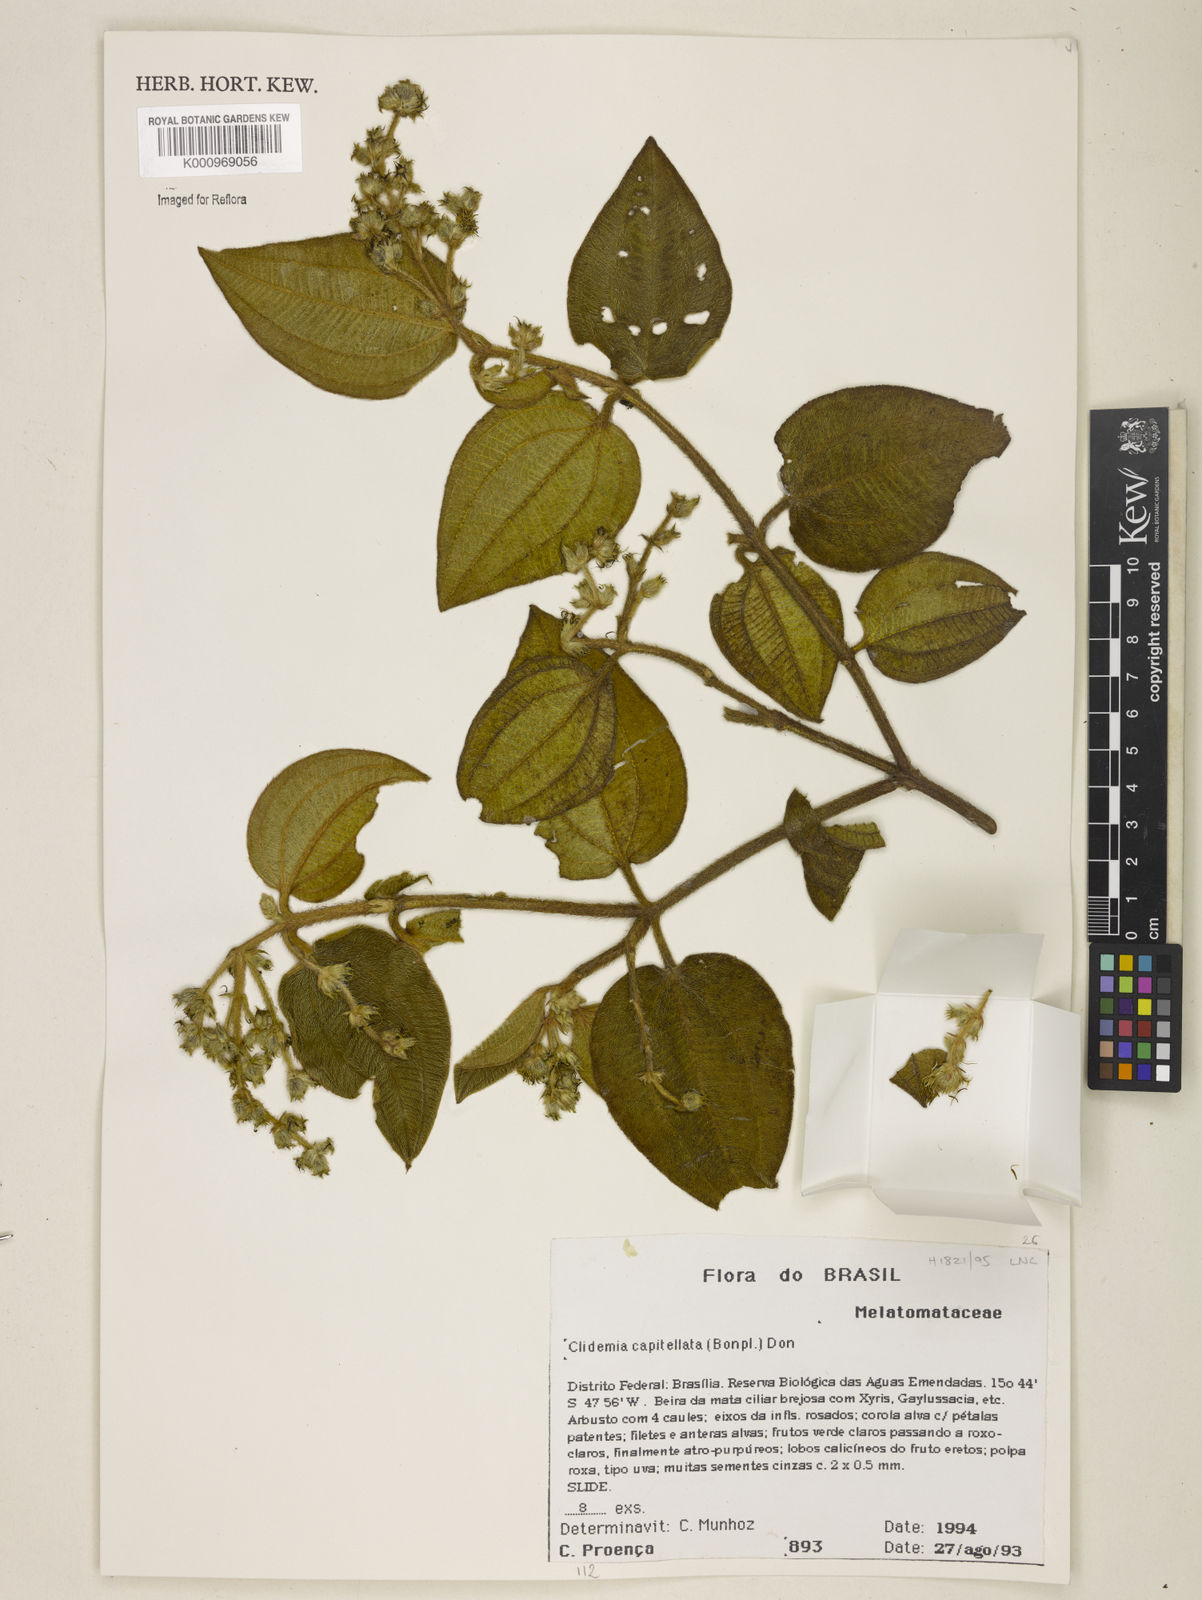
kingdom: Plantae
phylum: Tracheophyta
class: Magnoliopsida
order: Myrtales
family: Melastomataceae
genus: Miconia
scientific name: Miconia dependens
